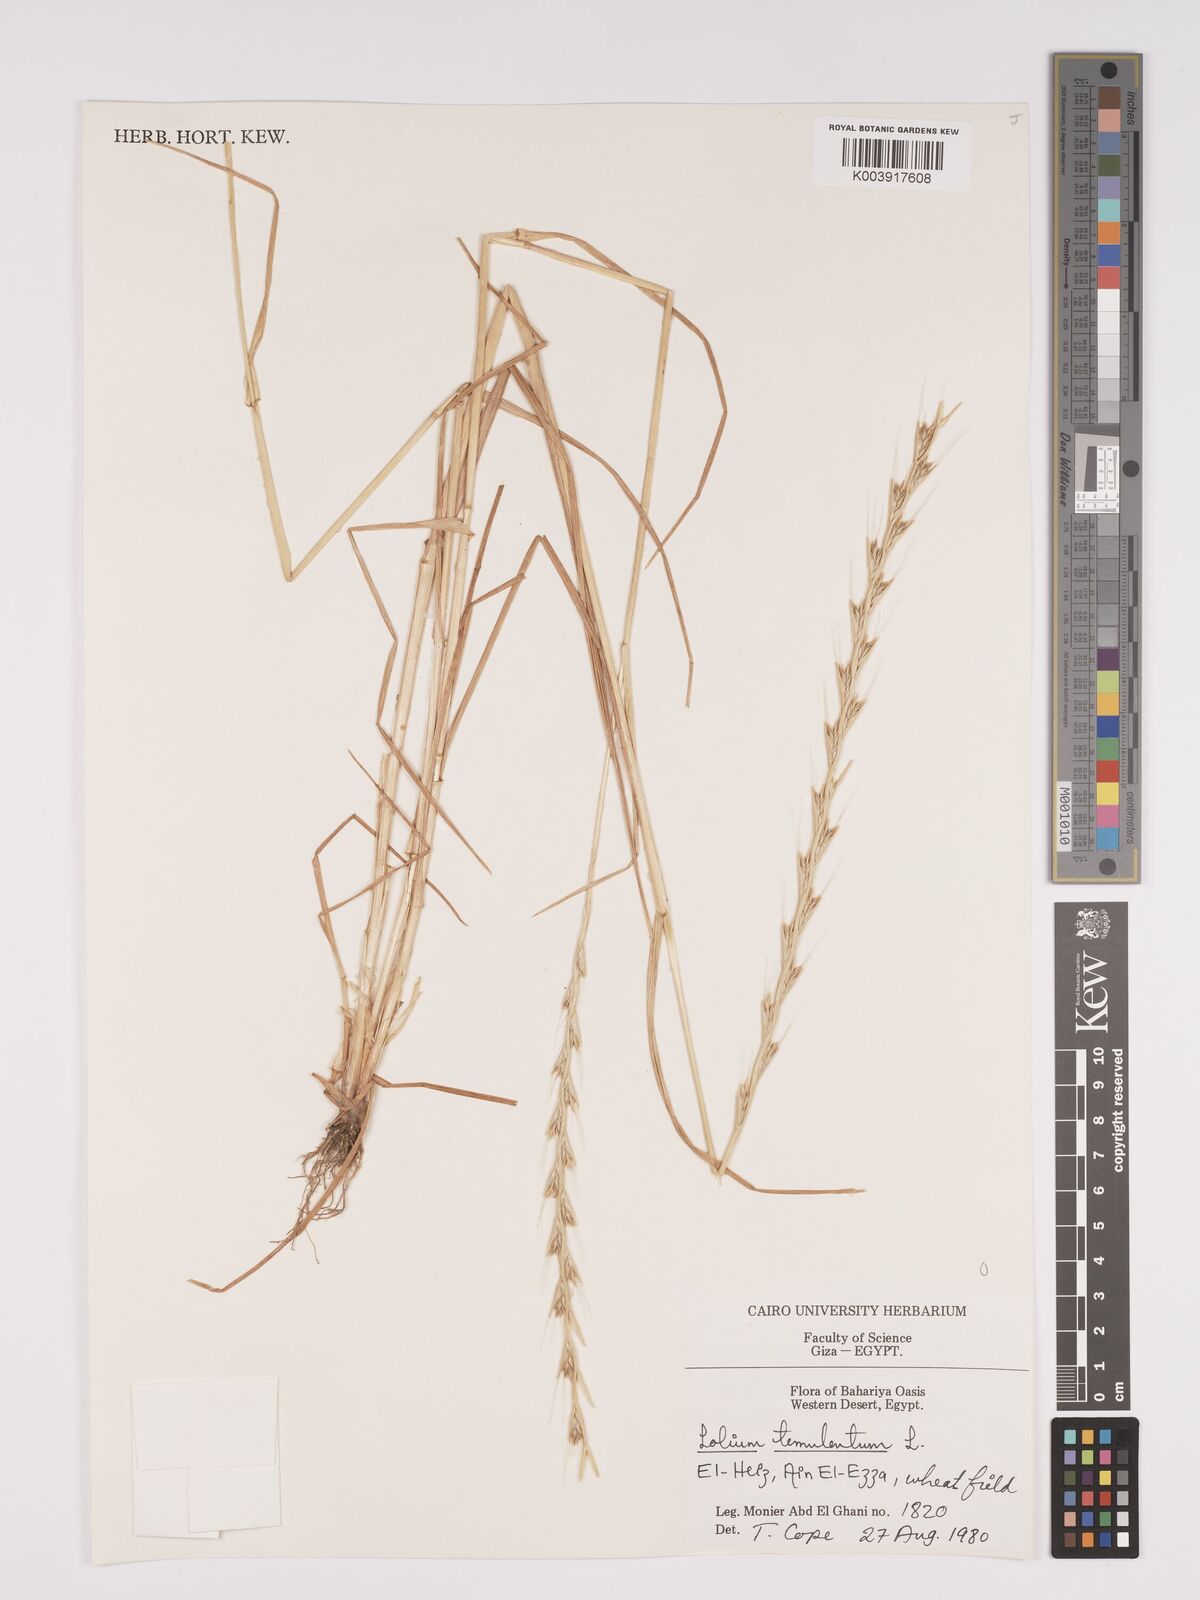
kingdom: Plantae
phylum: Tracheophyta
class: Liliopsida
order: Poales
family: Poaceae
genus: Lolium
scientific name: Lolium temulentum
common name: Darnel
